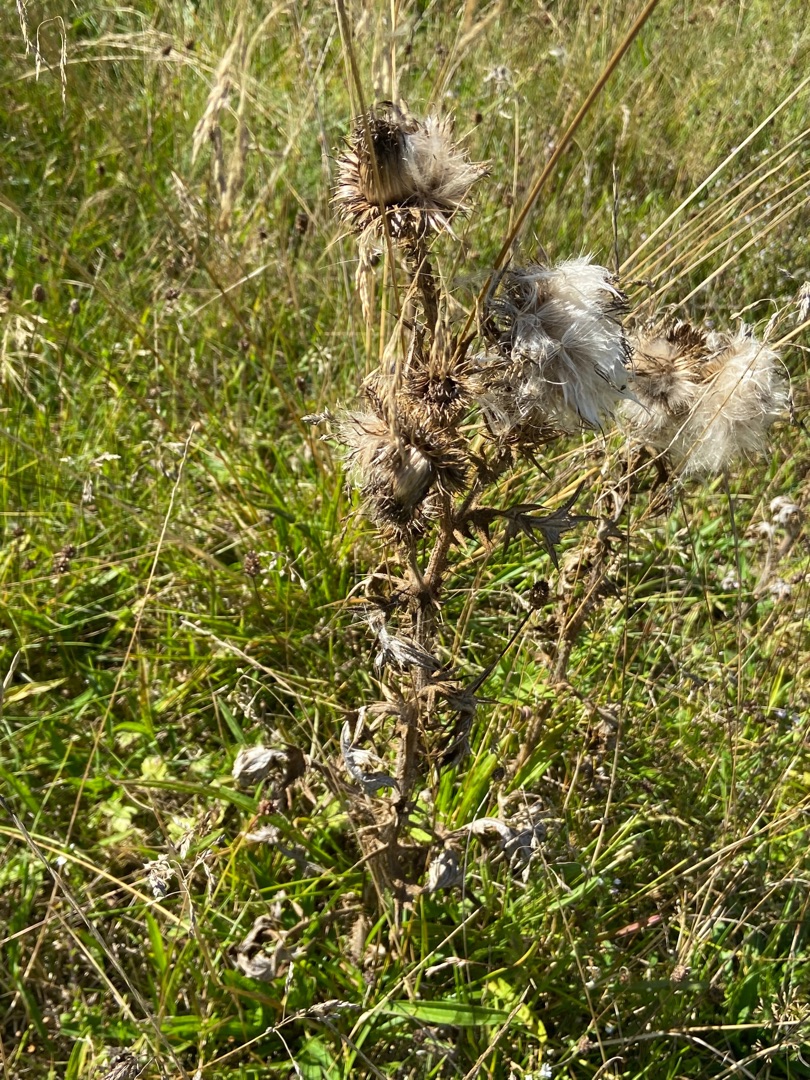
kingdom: Plantae
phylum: Tracheophyta
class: Magnoliopsida
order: Asterales
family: Asteraceae
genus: Cirsium
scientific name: Cirsium vulgare
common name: Horse-tidsel
